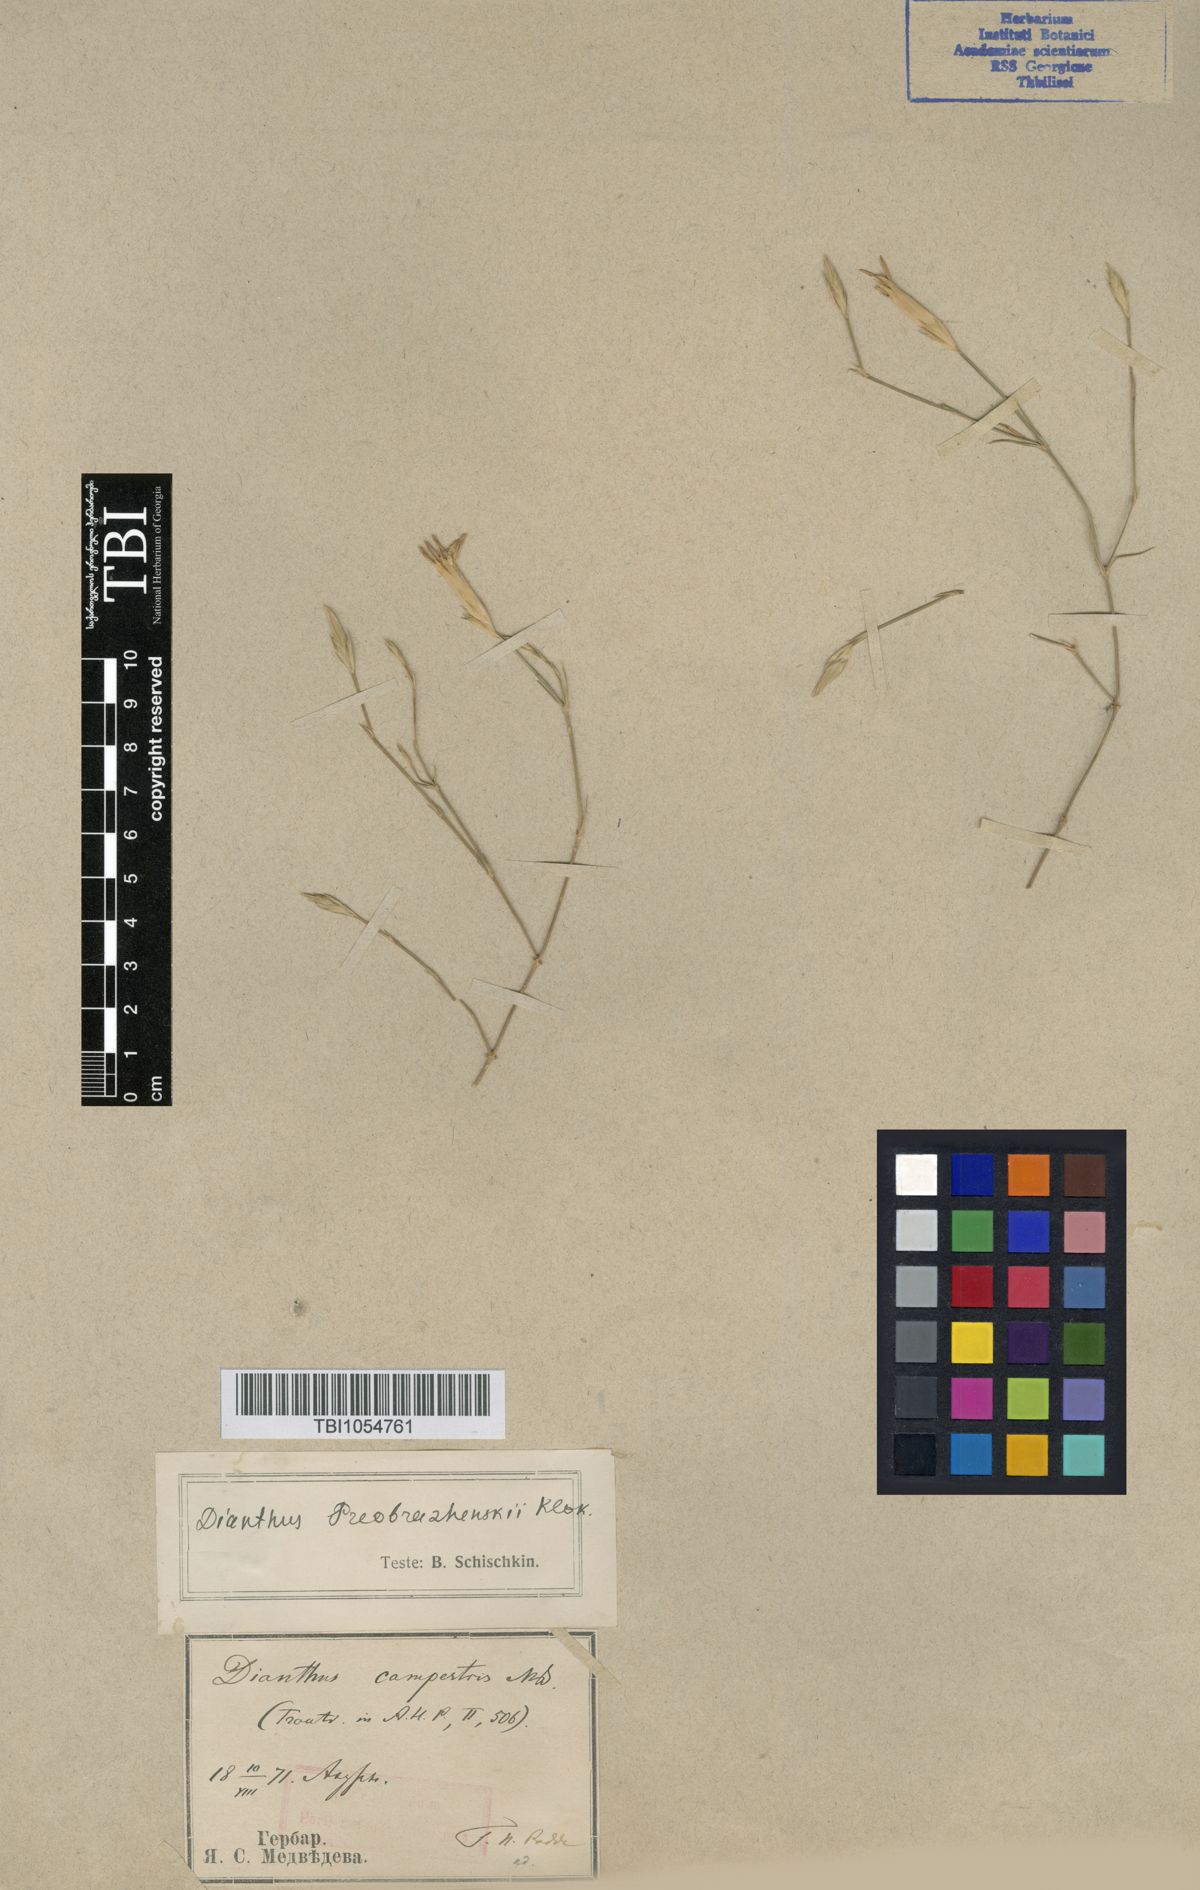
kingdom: Plantae
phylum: Tracheophyta
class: Magnoliopsida
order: Caryophyllales
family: Caryophyllaceae
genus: Dianthus
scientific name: Dianthus bicolor
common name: Bicolour pink
